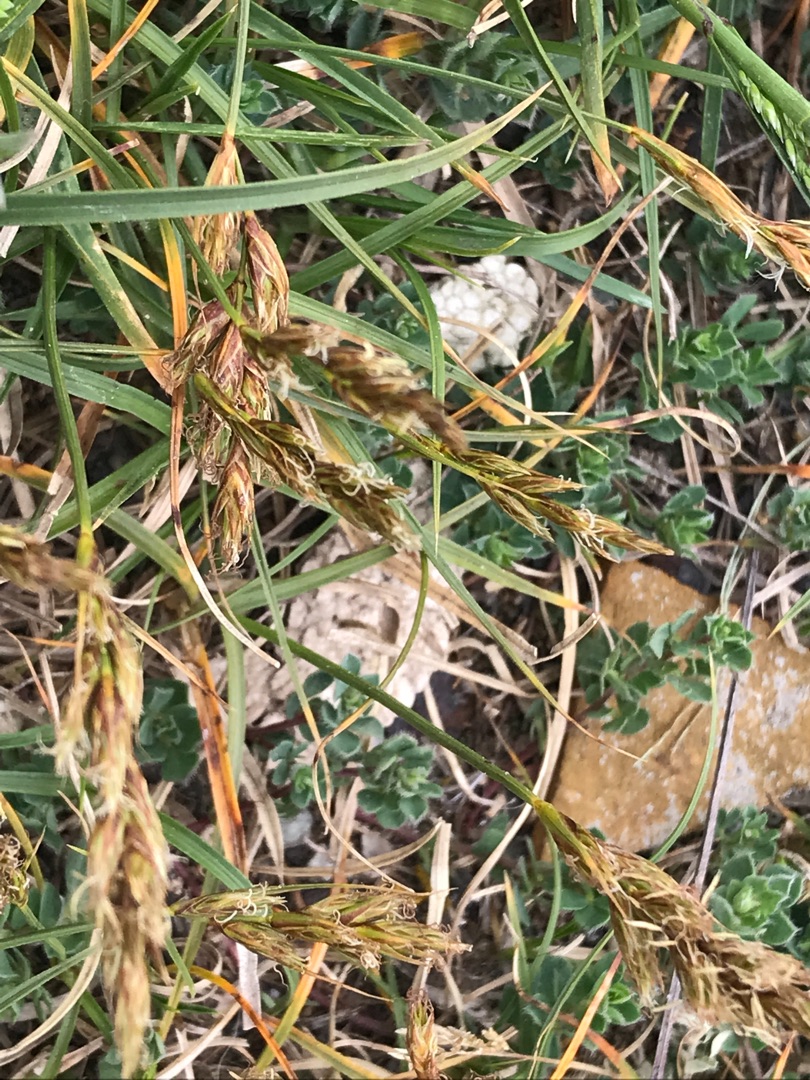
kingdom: Plantae
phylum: Tracheophyta
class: Liliopsida
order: Poales
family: Cyperaceae
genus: Carex
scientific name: Carex arenaria
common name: Sand-star
